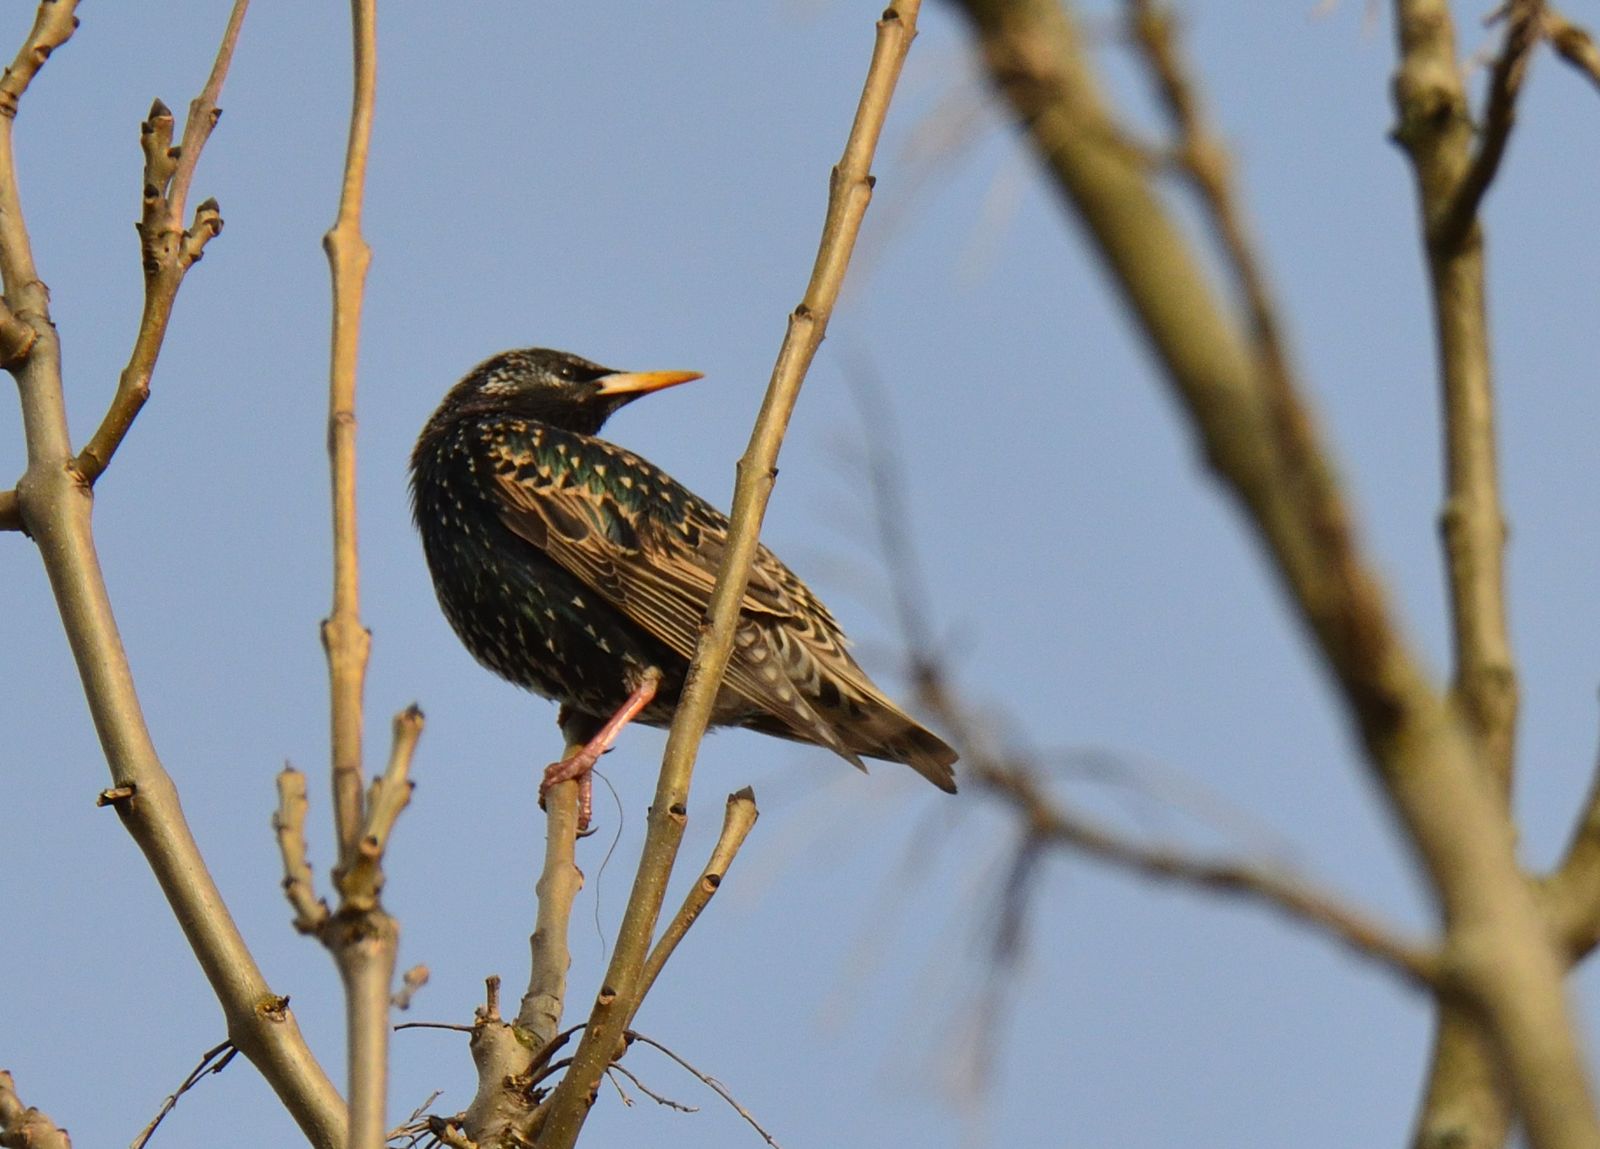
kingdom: Animalia
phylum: Chordata
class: Aves
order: Passeriformes
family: Sturnidae
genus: Sturnus
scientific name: Sturnus vulgaris
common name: Common starling
